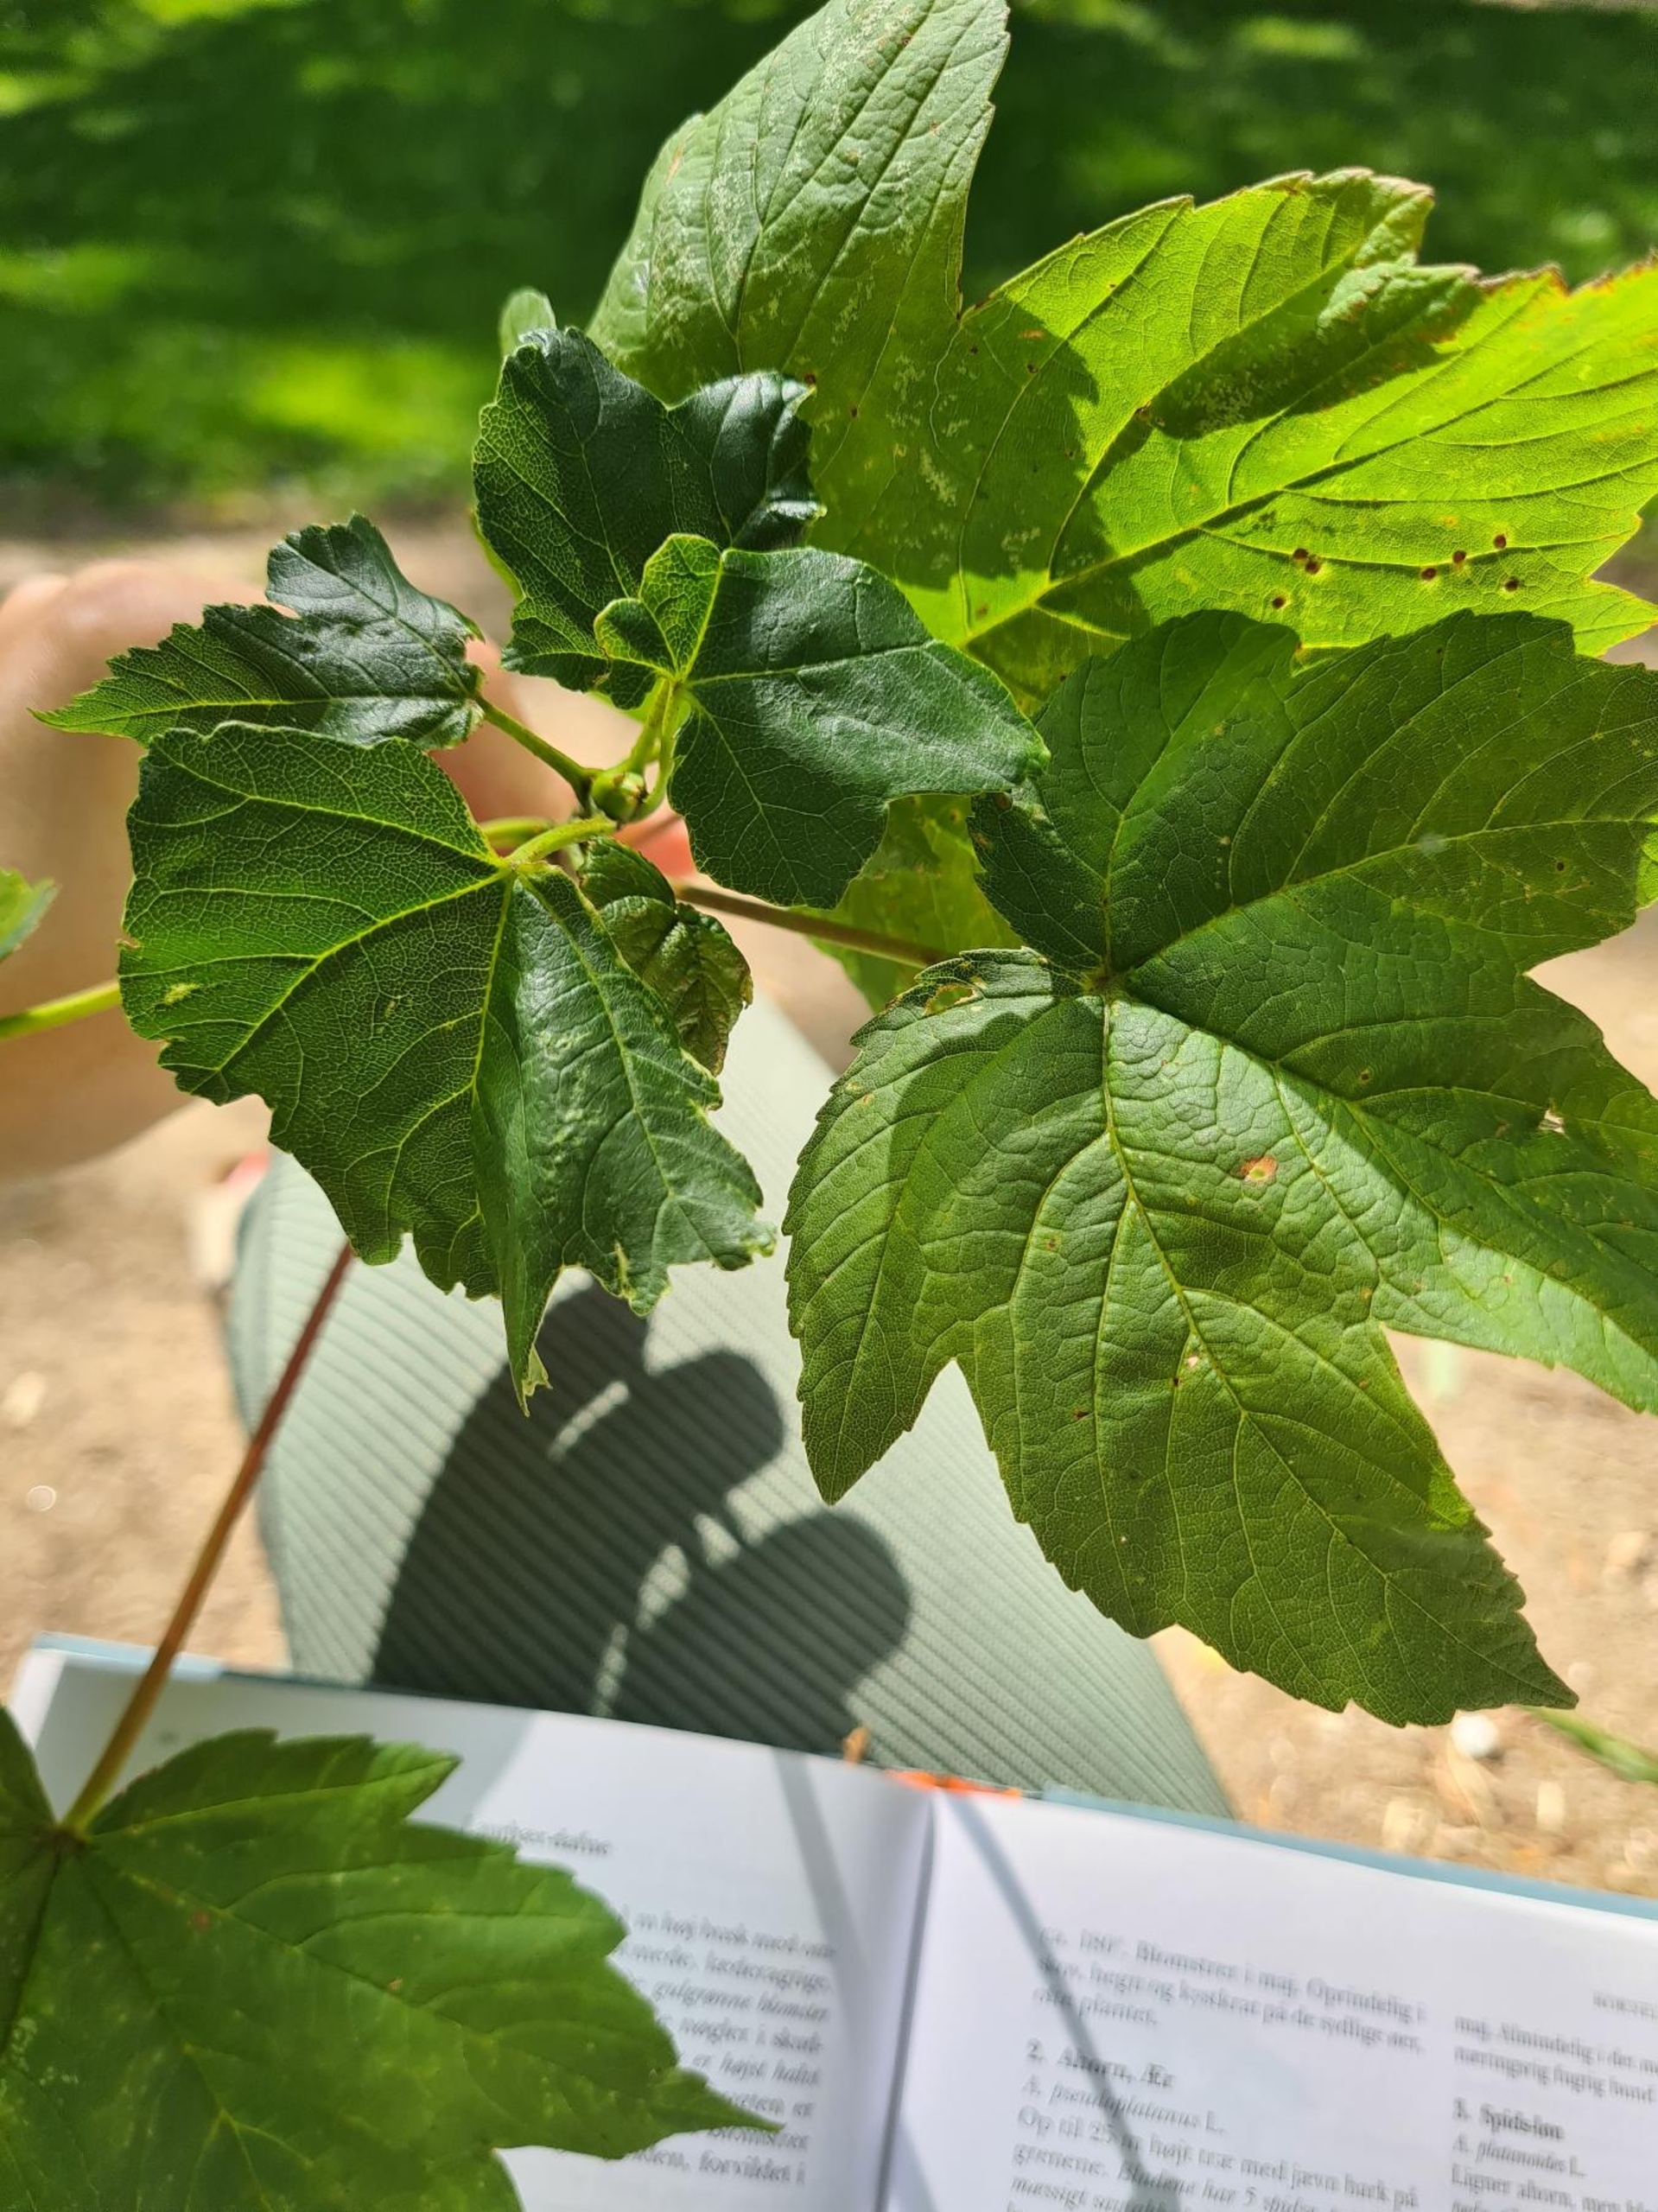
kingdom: Plantae
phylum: Tracheophyta
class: Magnoliopsida
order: Sapindales
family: Sapindaceae
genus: Acer
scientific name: Acer pseudoplatanus
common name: Ahorn
